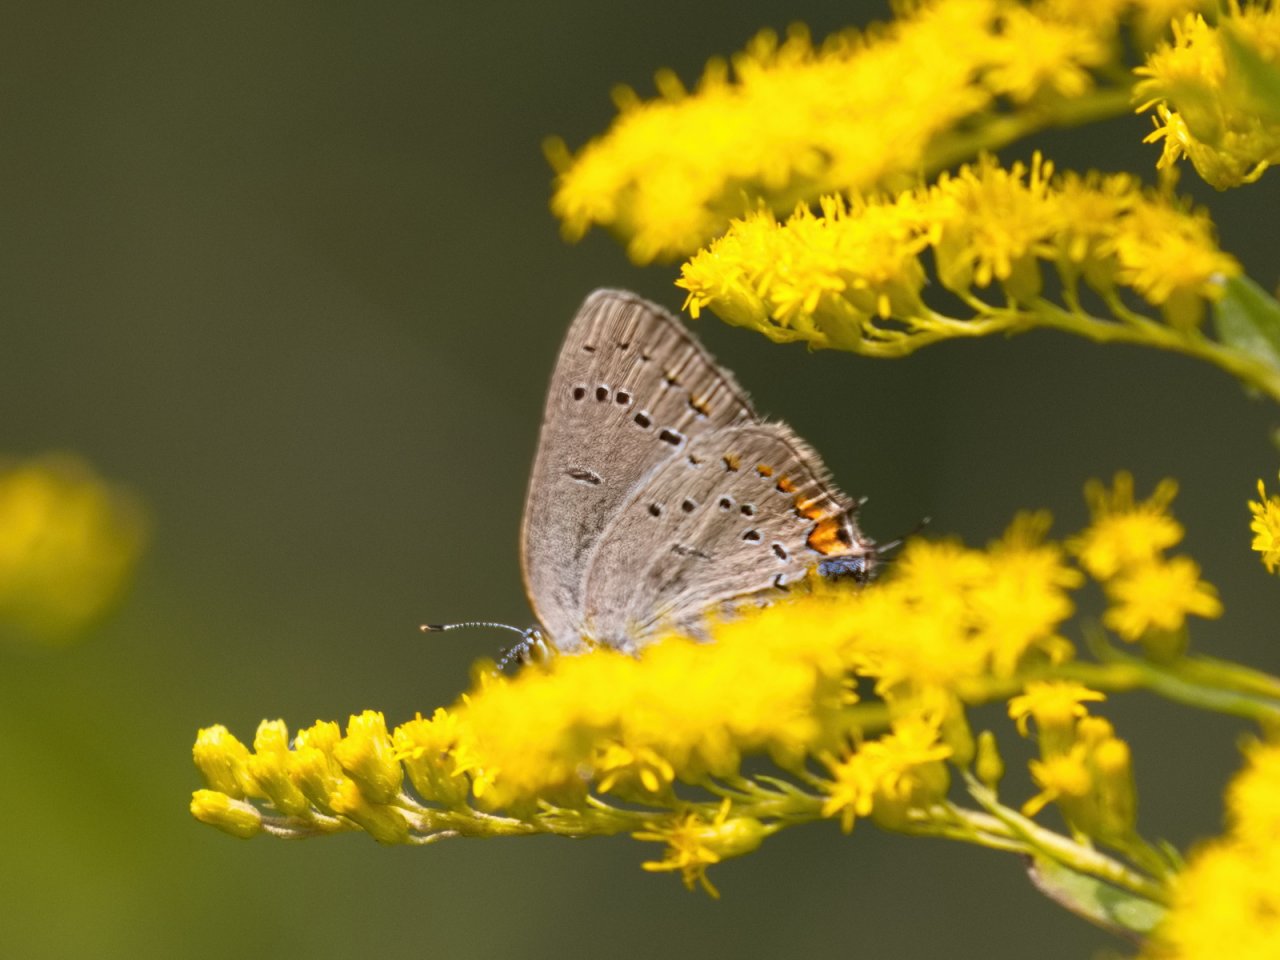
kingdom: Animalia
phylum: Arthropoda
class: Insecta
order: Lepidoptera
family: Lycaenidae
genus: Strymon
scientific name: Strymon acadica
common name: Acadian Hairstreak
